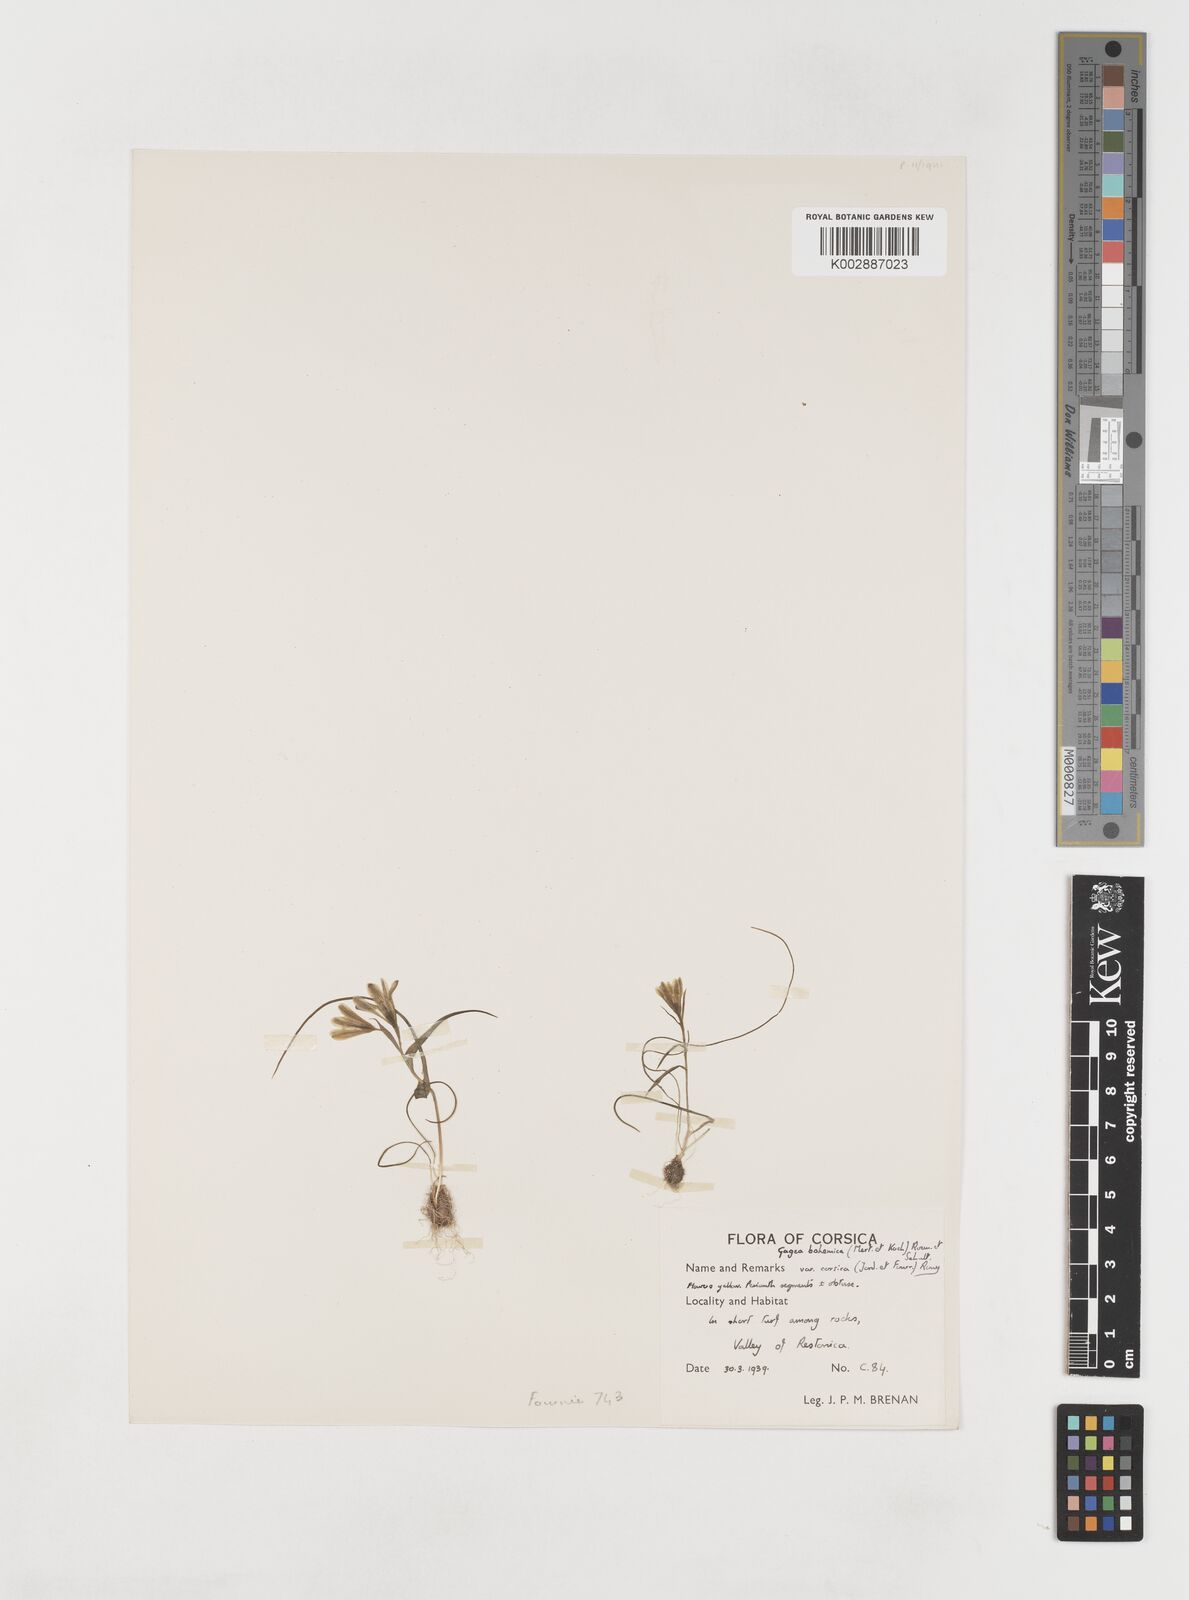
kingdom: Plantae
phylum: Tracheophyta
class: Liliopsida
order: Liliales
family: Liliaceae
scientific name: Liliaceae
